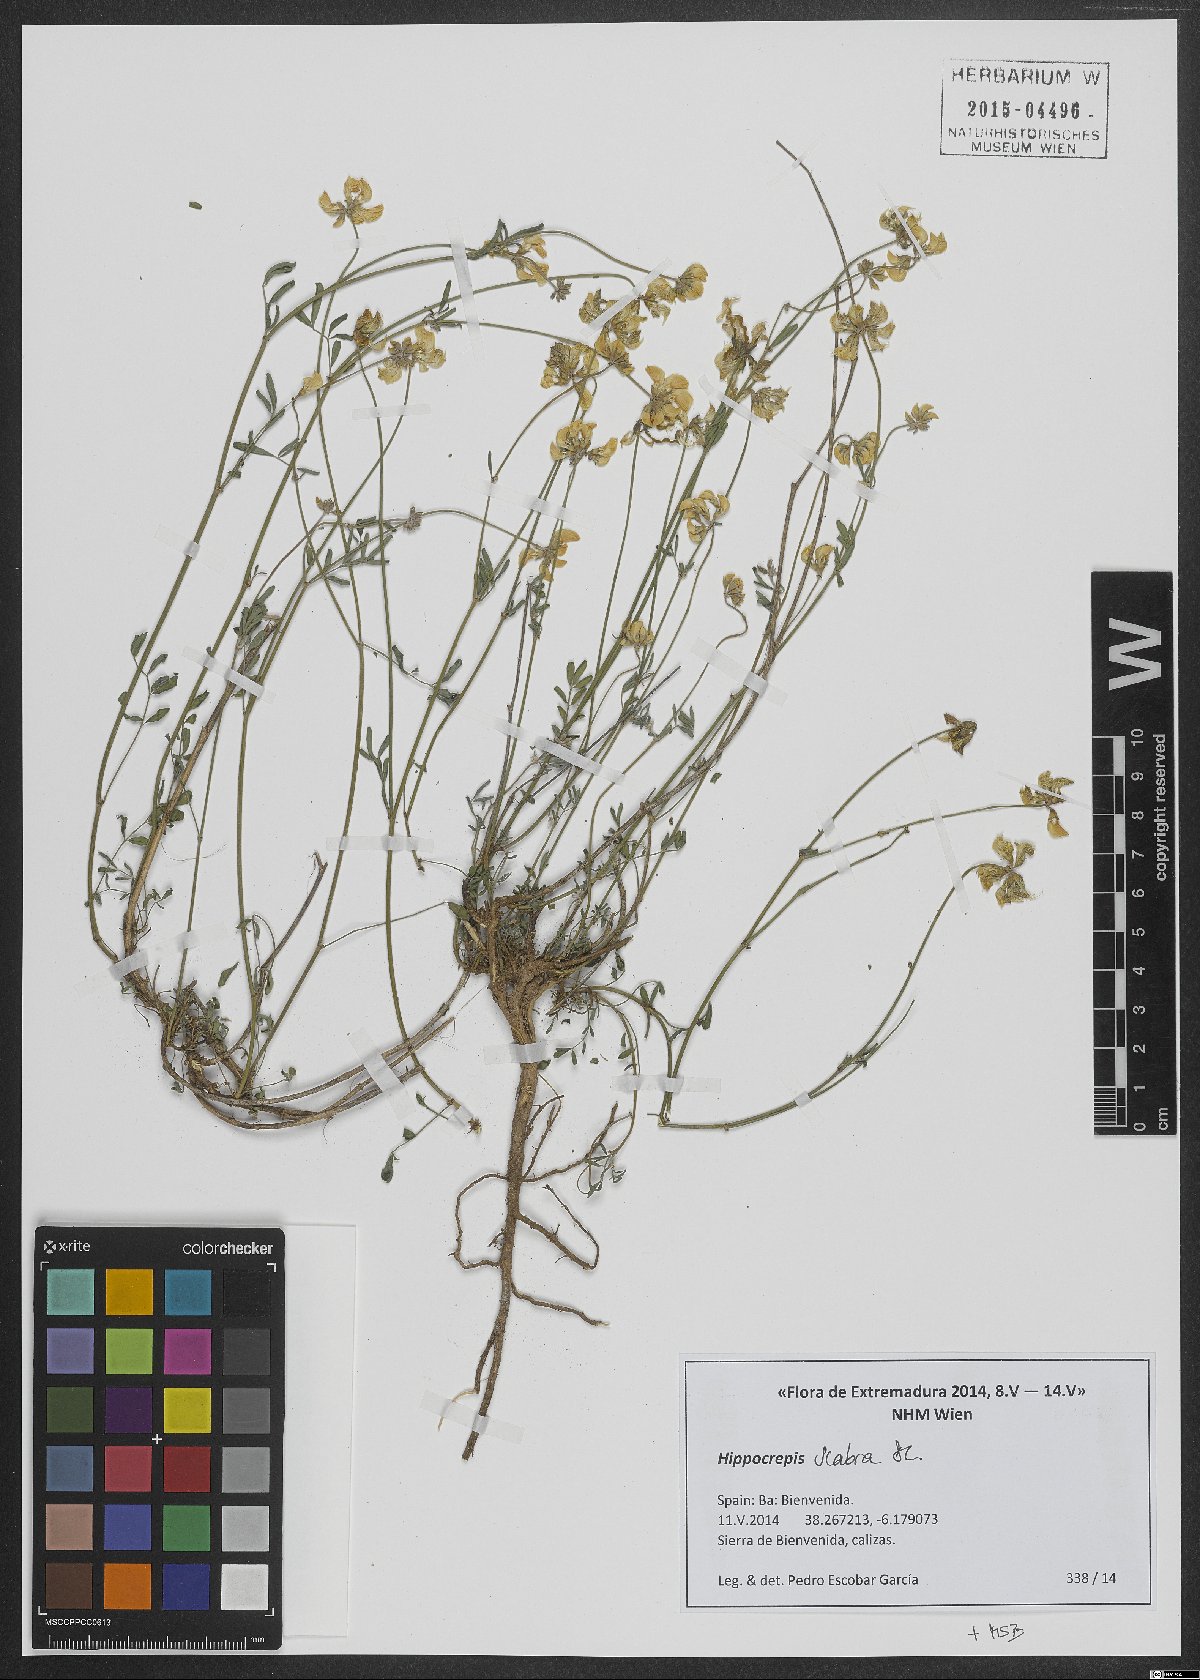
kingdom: Plantae
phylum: Tracheophyta
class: Magnoliopsida
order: Fabales
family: Fabaceae
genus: Hippocrepis
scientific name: Hippocrepis scabra
